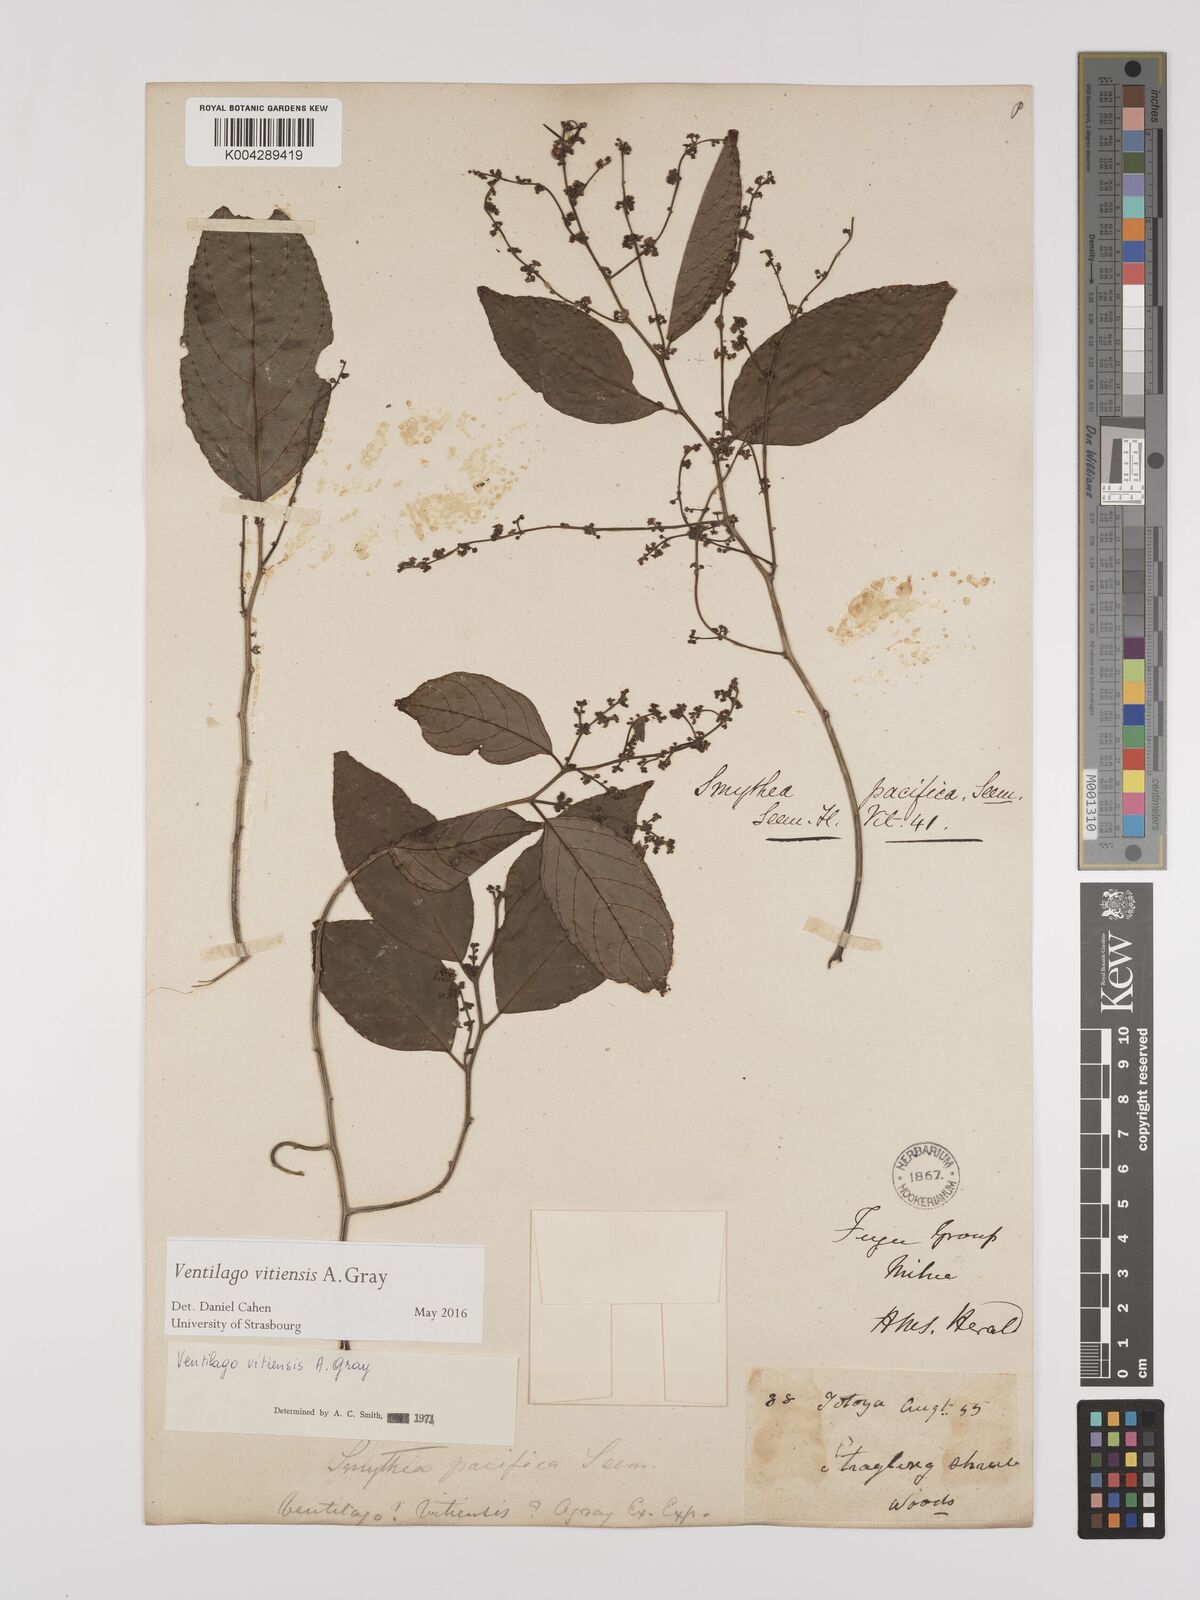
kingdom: Plantae
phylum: Tracheophyta
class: Magnoliopsida
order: Rosales
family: Rhamnaceae
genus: Ventilago
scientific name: Ventilago vitiensis
